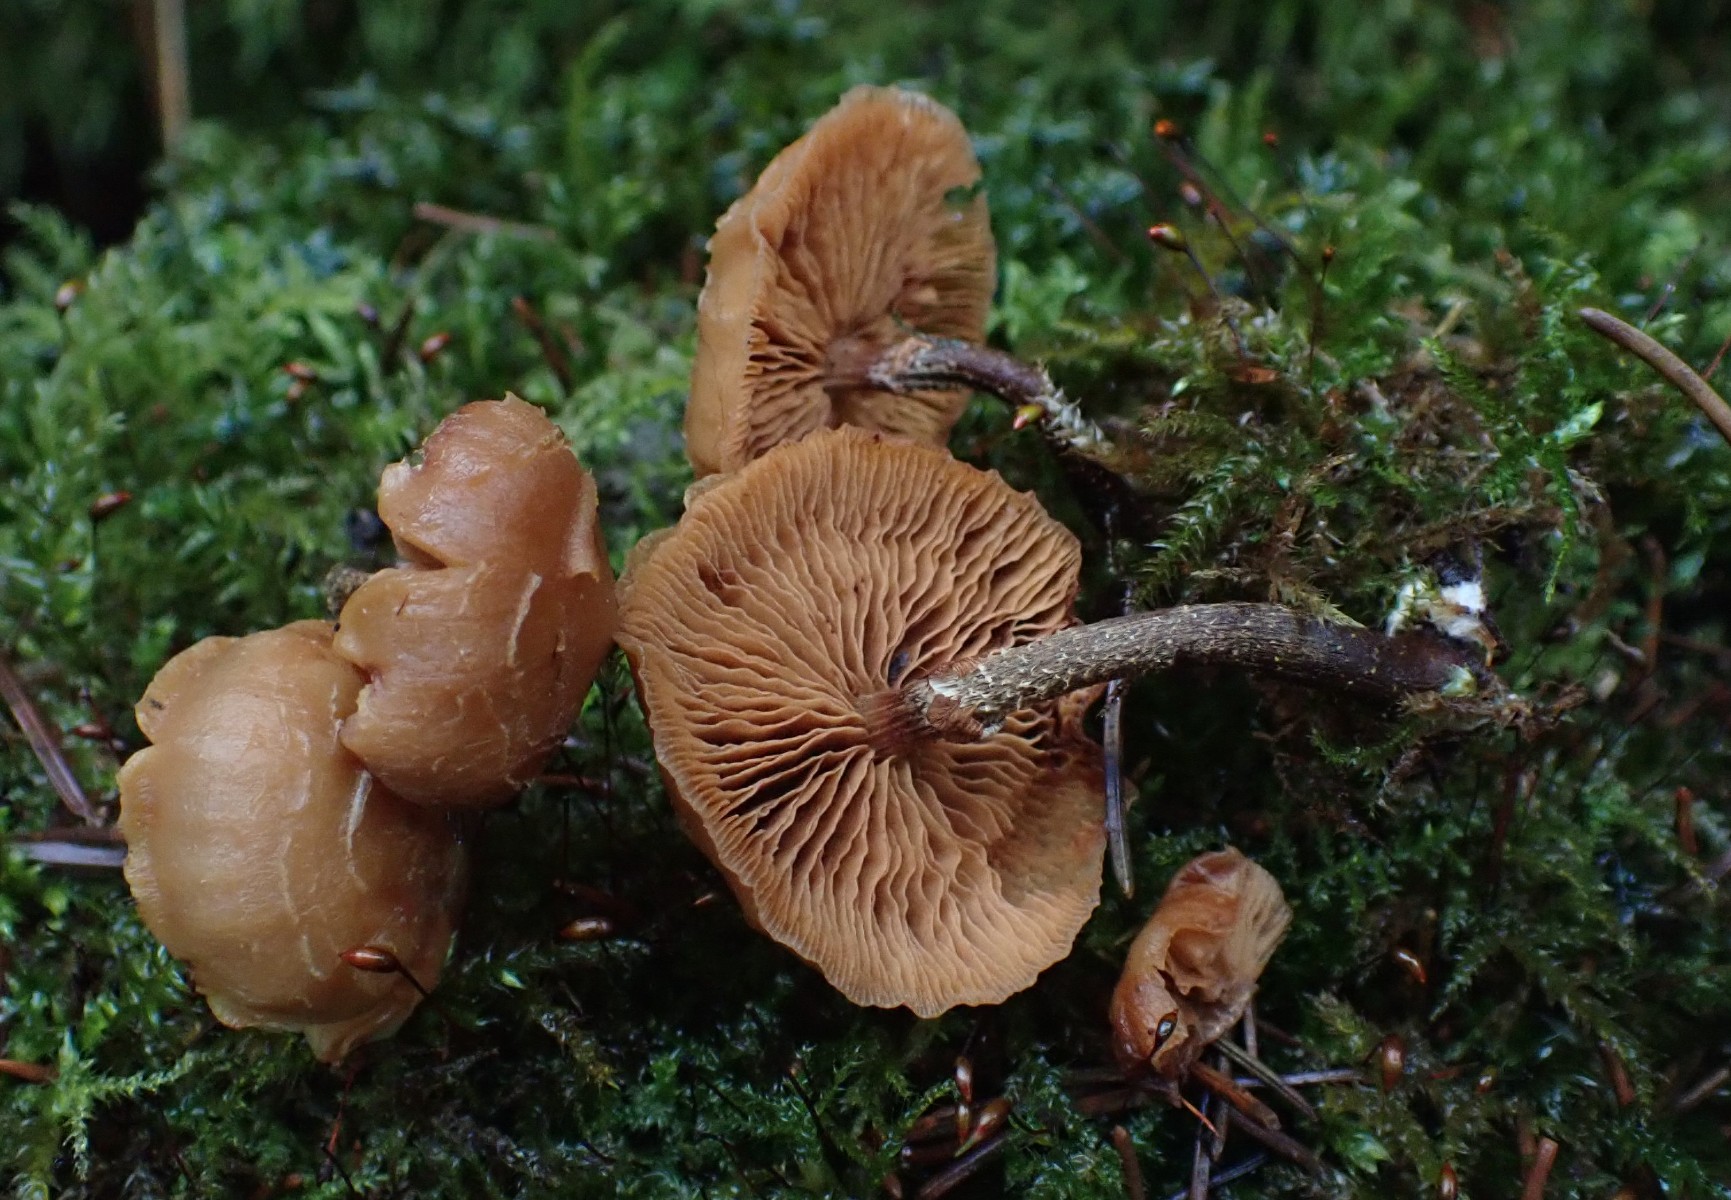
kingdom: Fungi
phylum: Basidiomycota
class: Agaricomycetes
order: Agaricales
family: Strophariaceae
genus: Kuehneromyces
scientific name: Kuehneromyces mutabilis
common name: foranderlig skælhat
